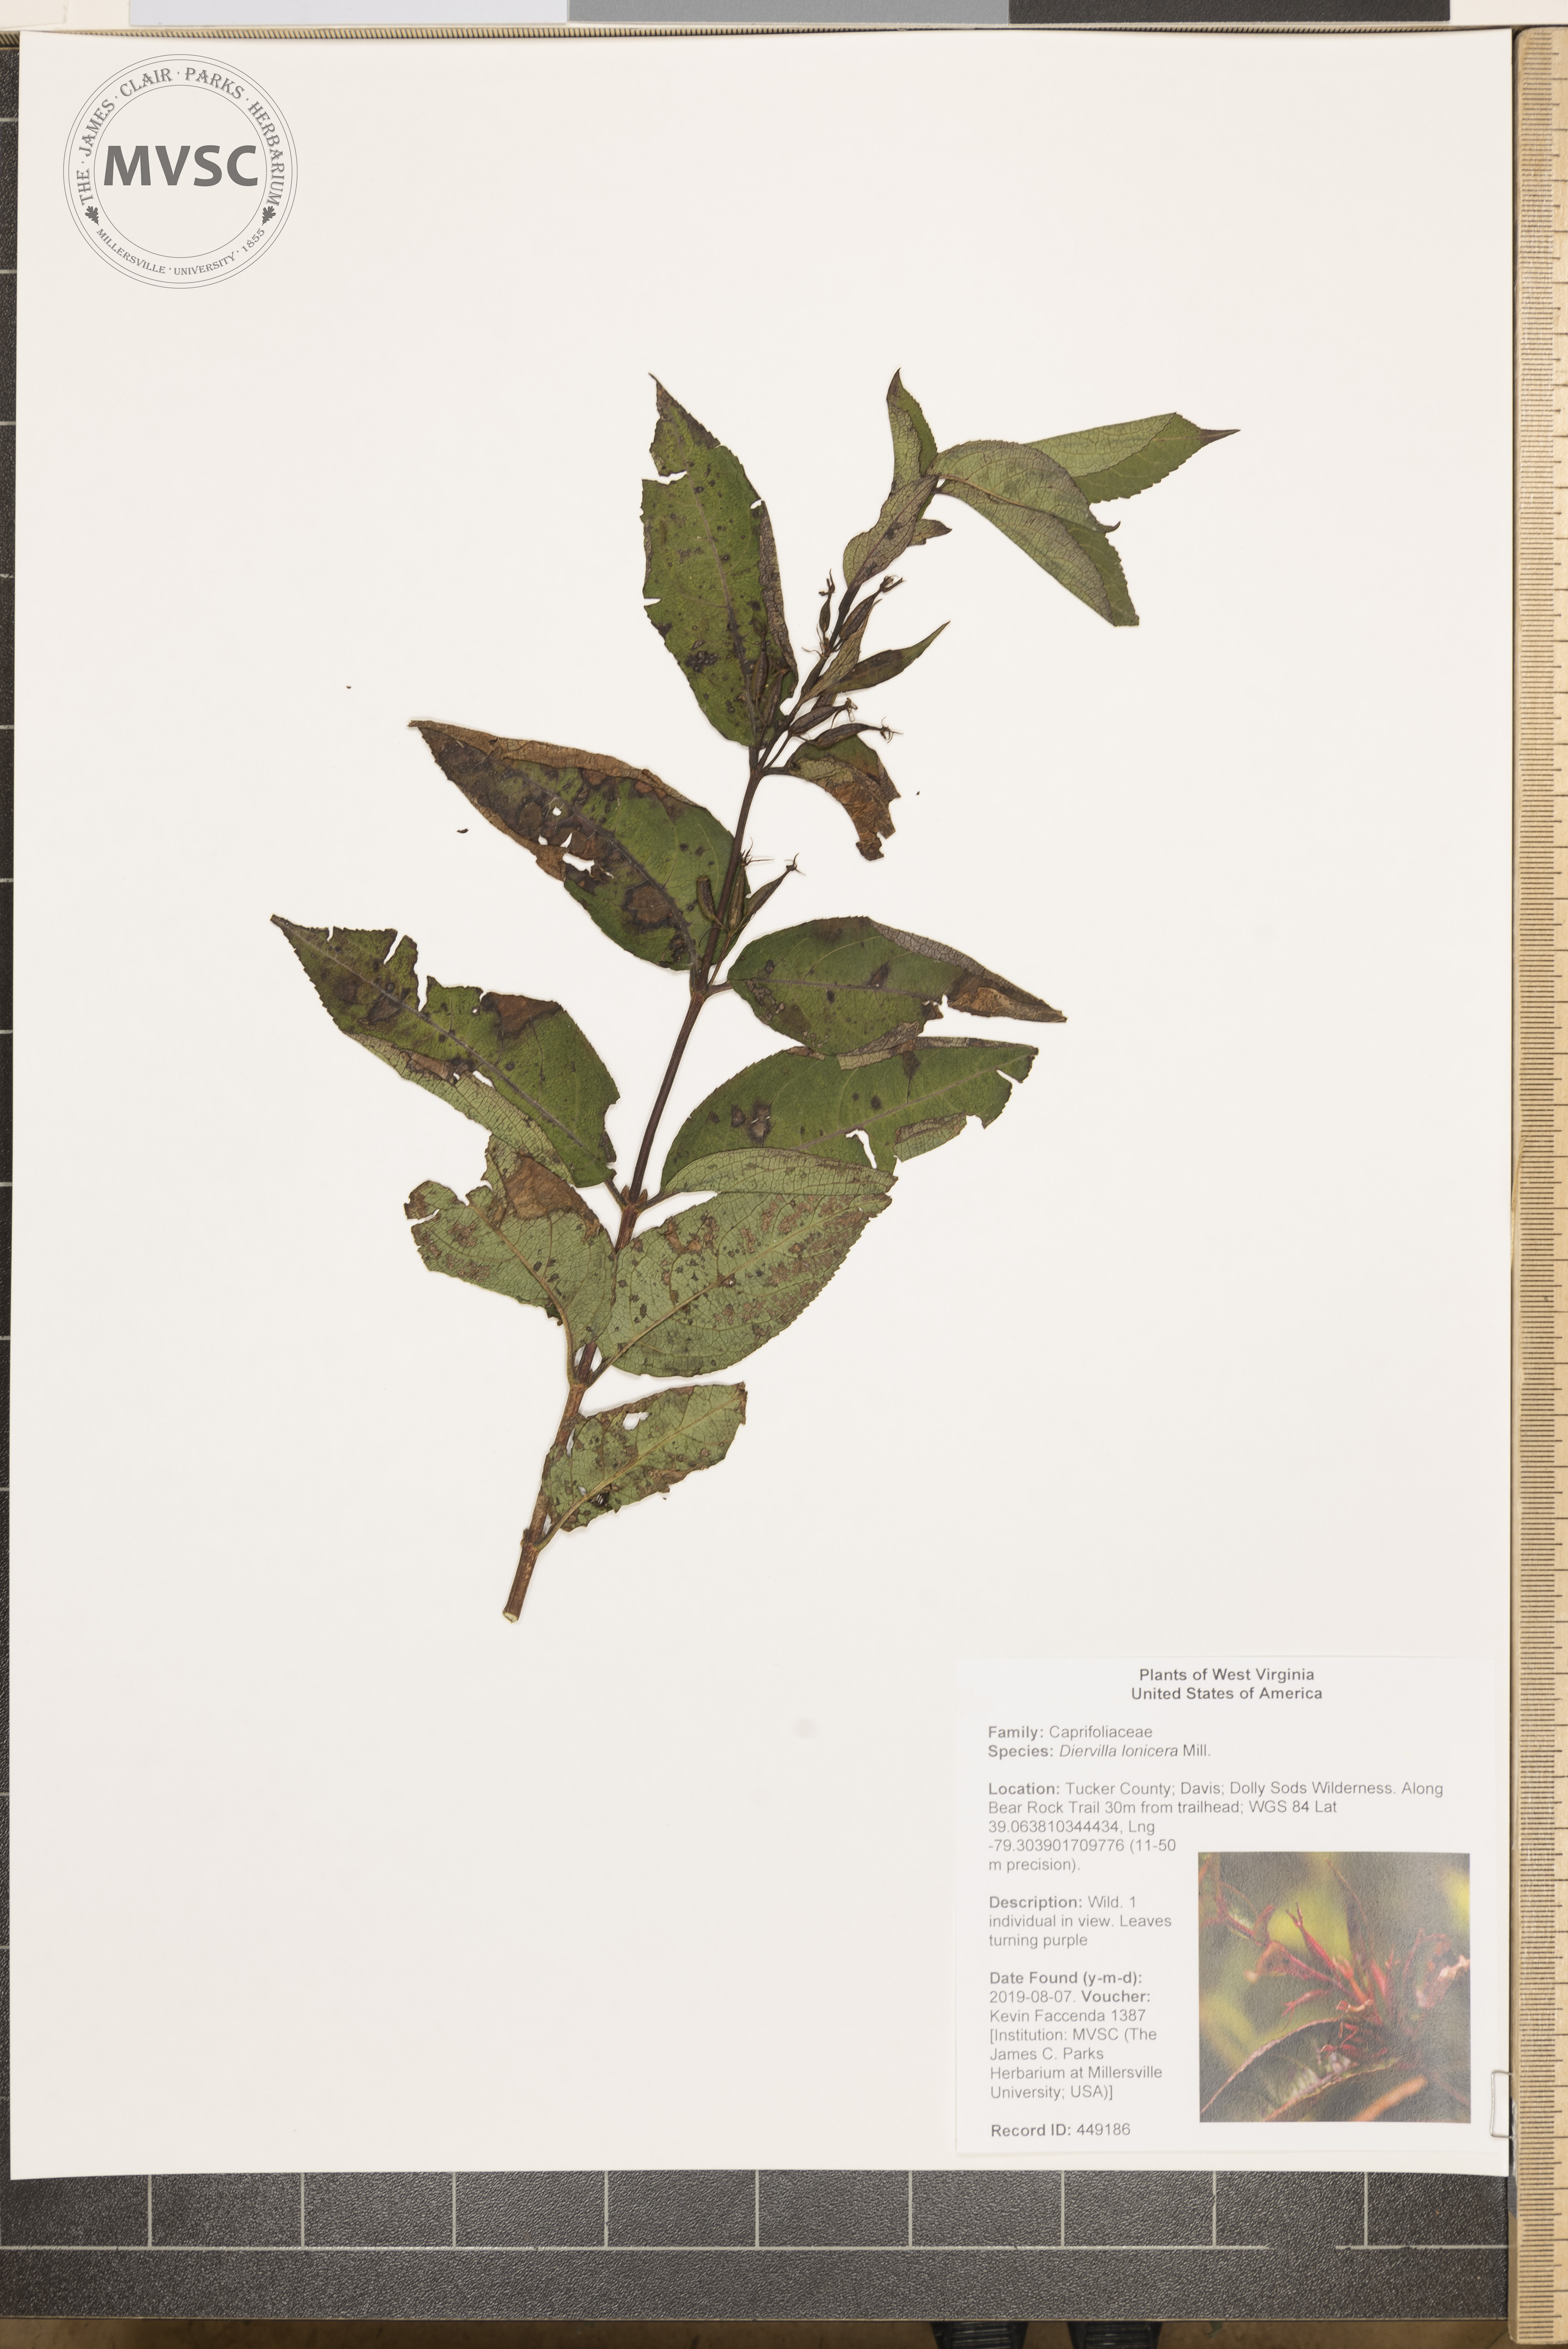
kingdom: Plantae
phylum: Tracheophyta
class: Magnoliopsida
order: Dipsacales
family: Caprifoliaceae
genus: Diervilla
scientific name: Diervilla lonicera
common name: Bush-honeysuckle
